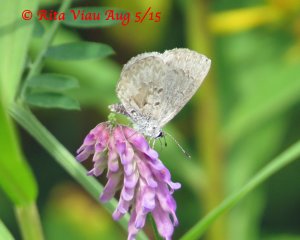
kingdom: Animalia
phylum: Arthropoda
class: Insecta
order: Lepidoptera
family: Lycaenidae
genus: Celastrina
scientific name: Celastrina
